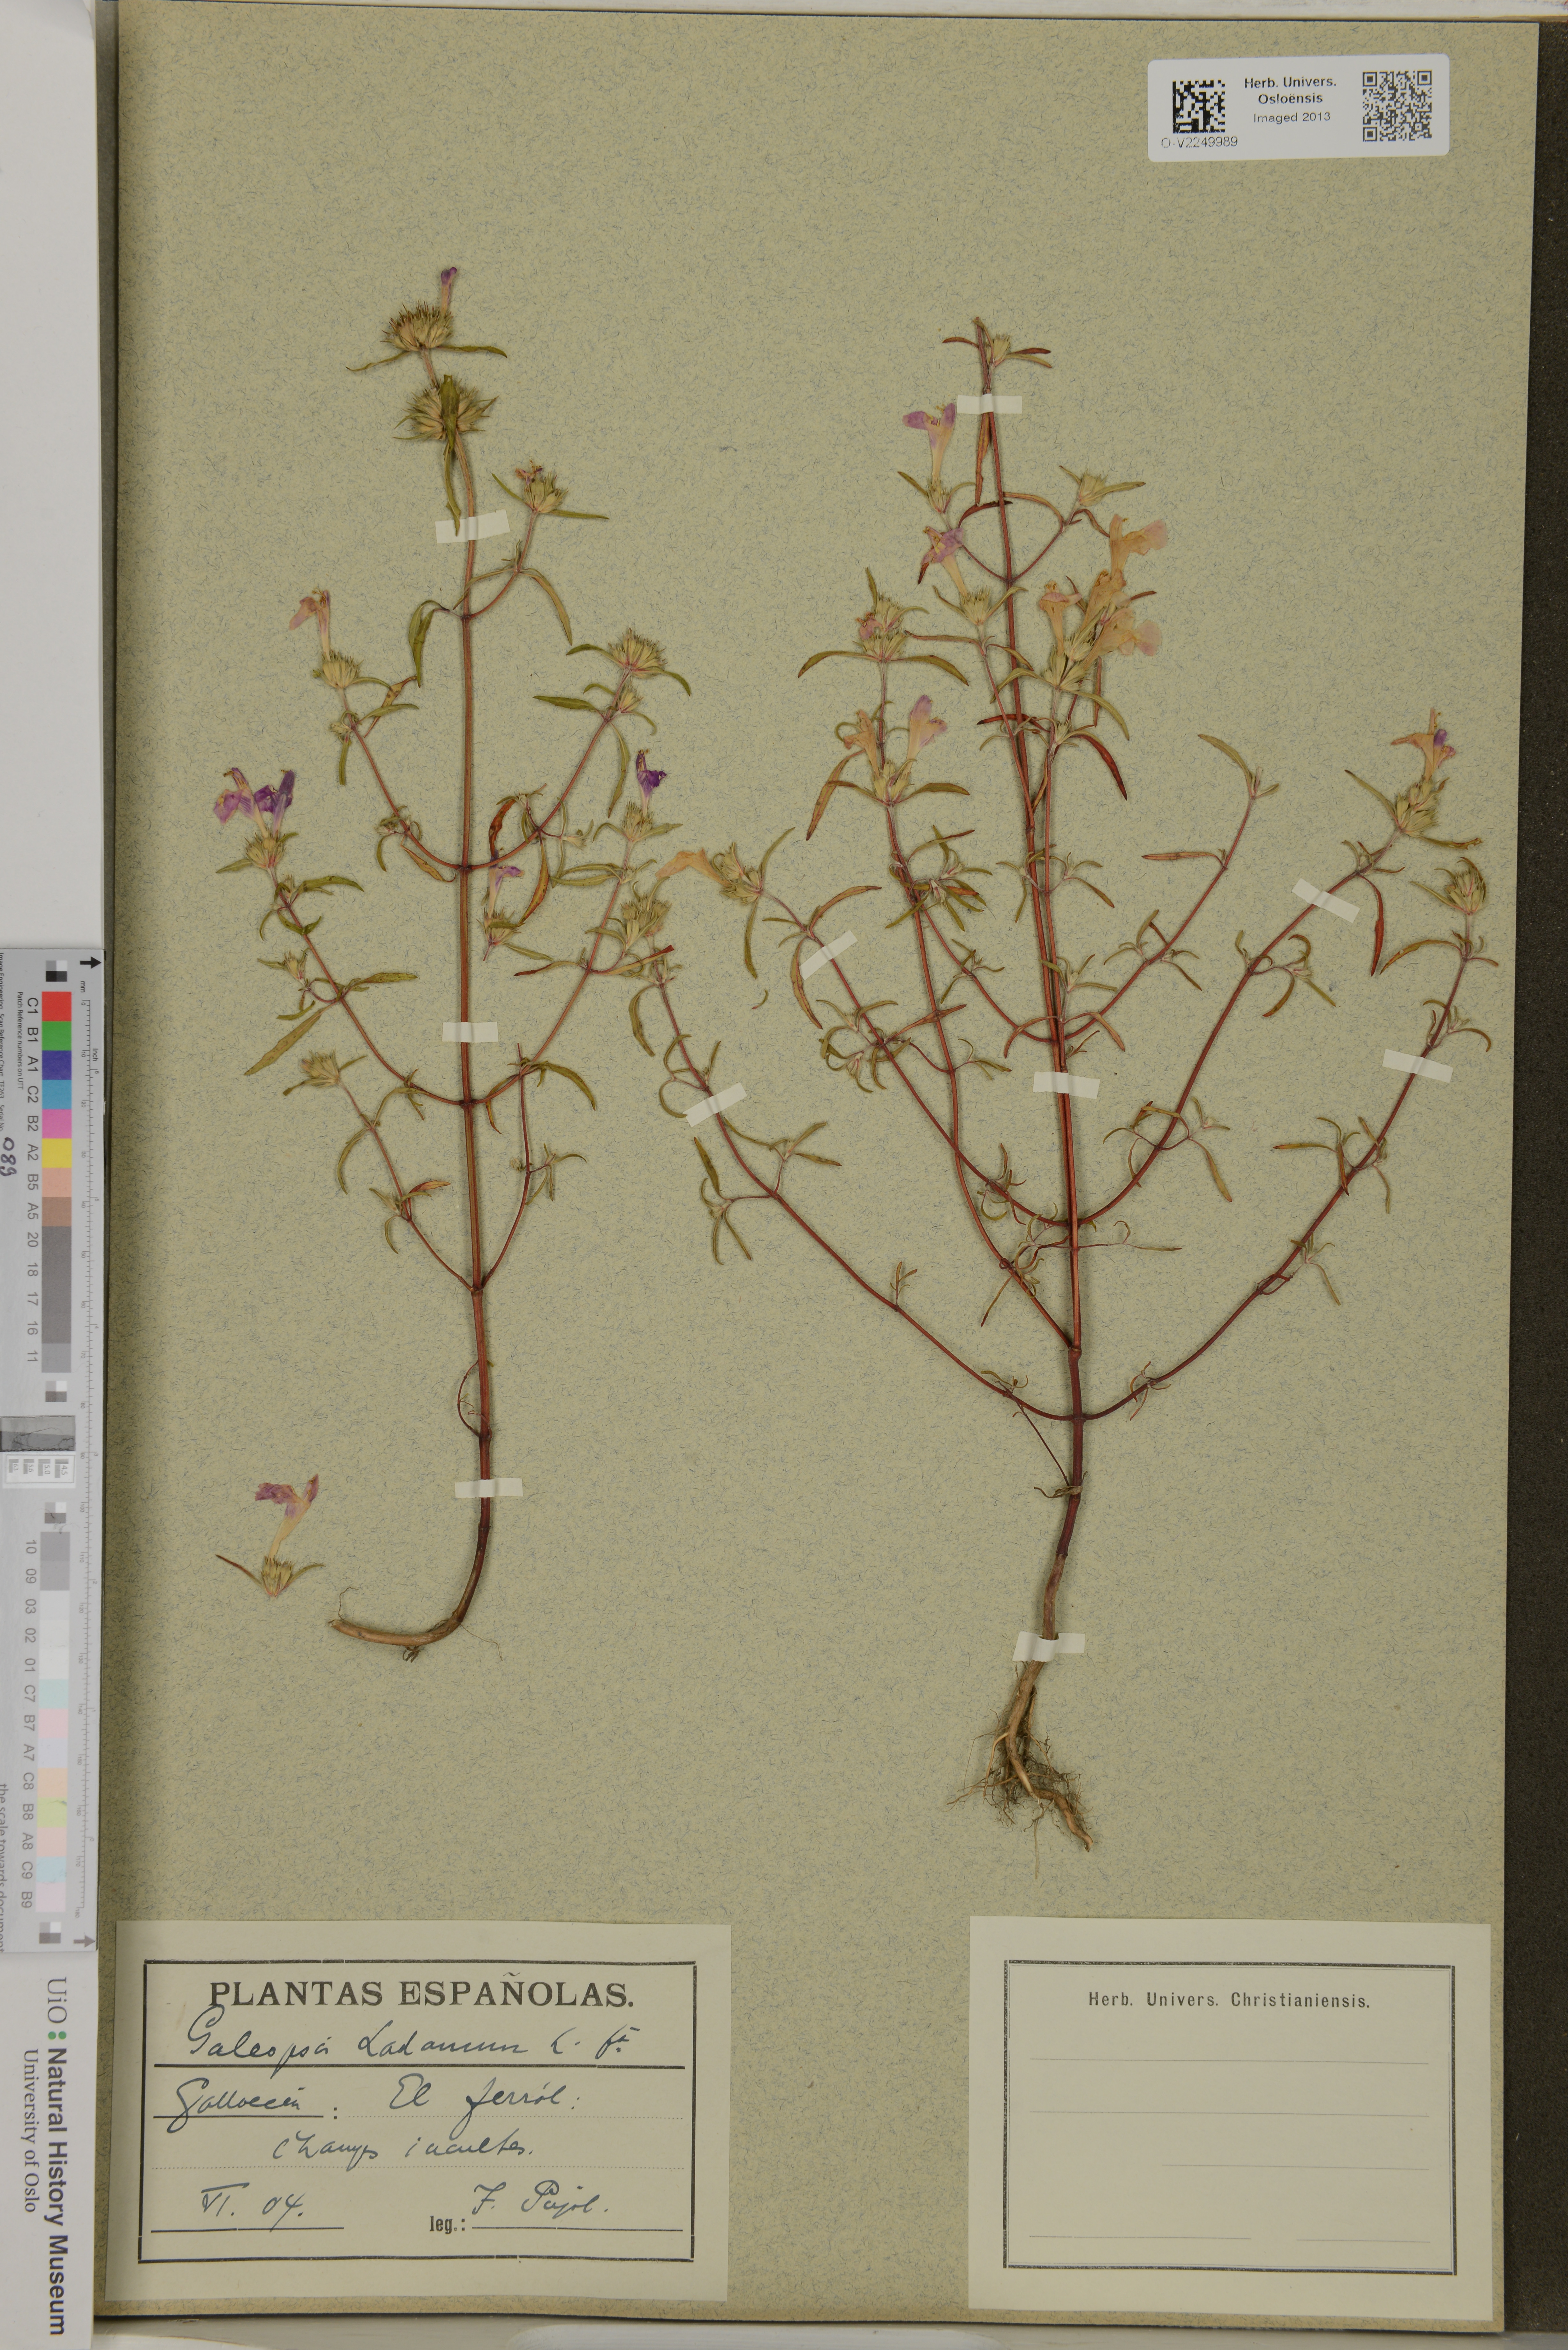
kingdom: Plantae
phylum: Tracheophyta
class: Magnoliopsida
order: Lamiales
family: Lamiaceae
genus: Galeopsis
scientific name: Galeopsis ladanum
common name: Broad-leaved hemp-nettle
